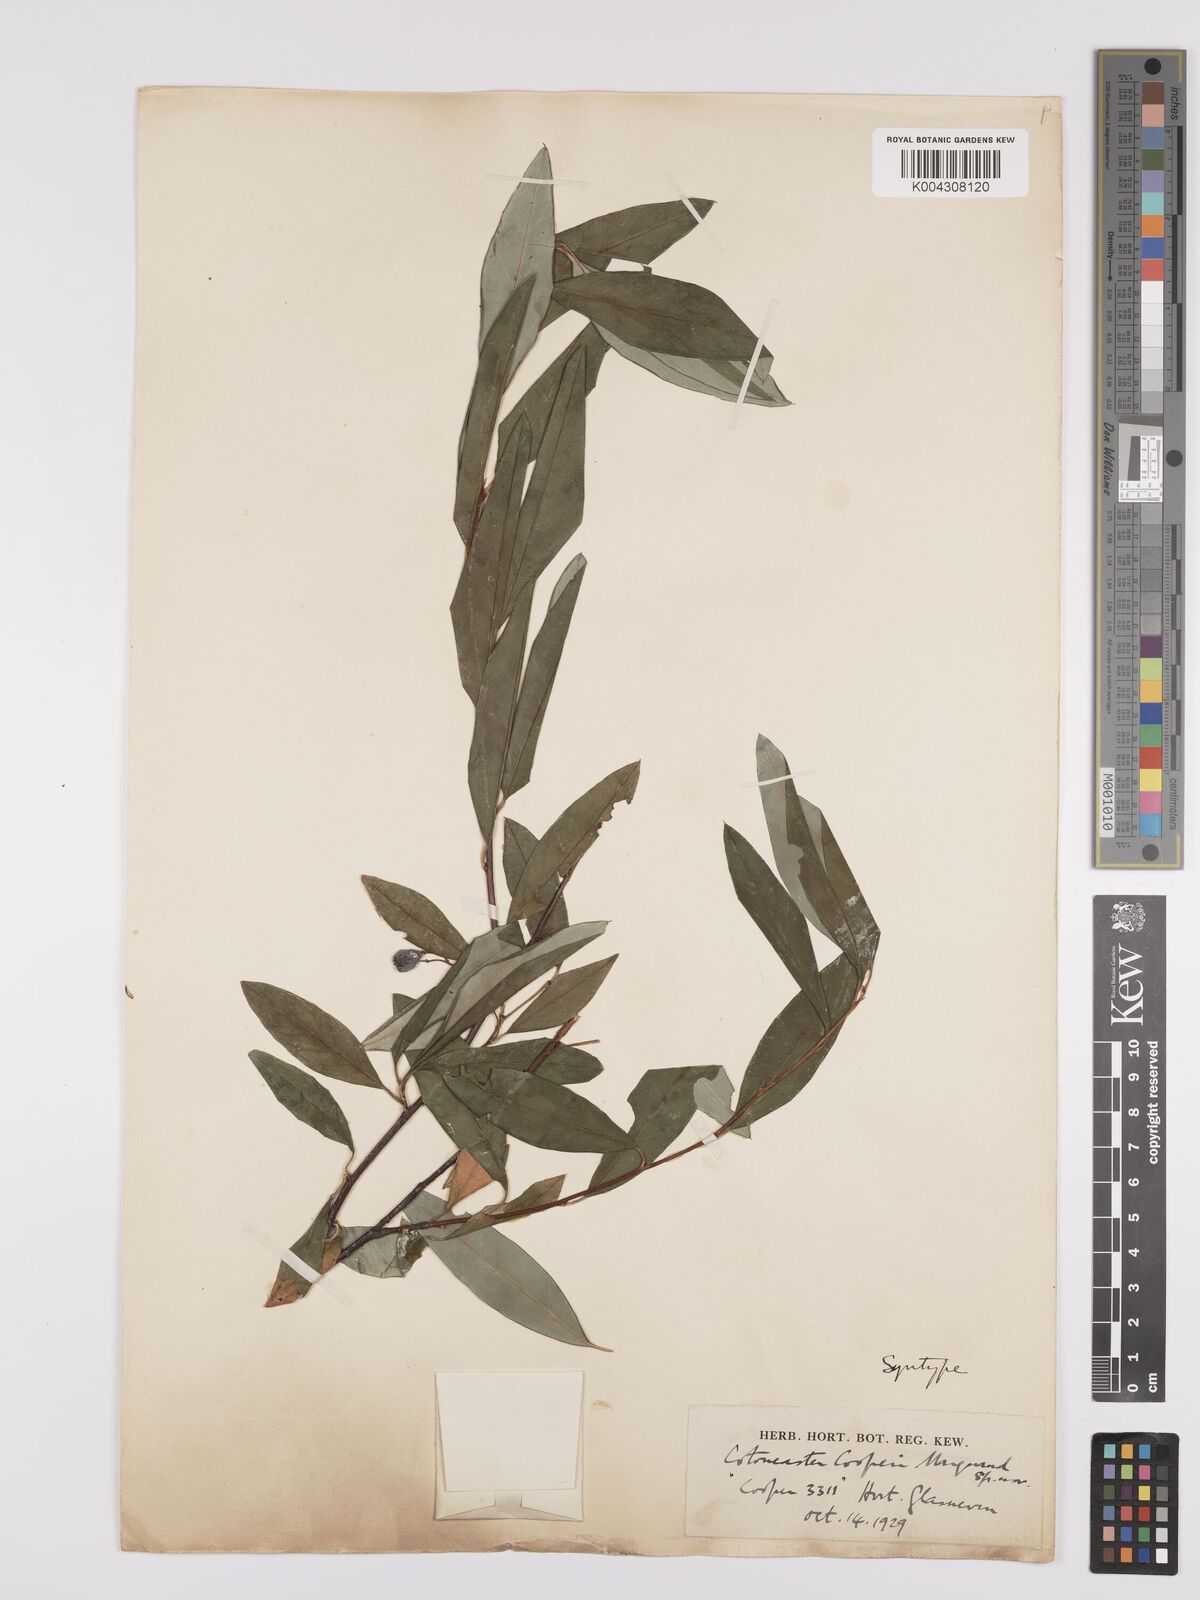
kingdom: Plantae
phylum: Tracheophyta
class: Magnoliopsida
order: Rosales
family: Rosaceae
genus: Cotoneaster
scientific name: Cotoneaster cooperi
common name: Cooper's cotoneaster
